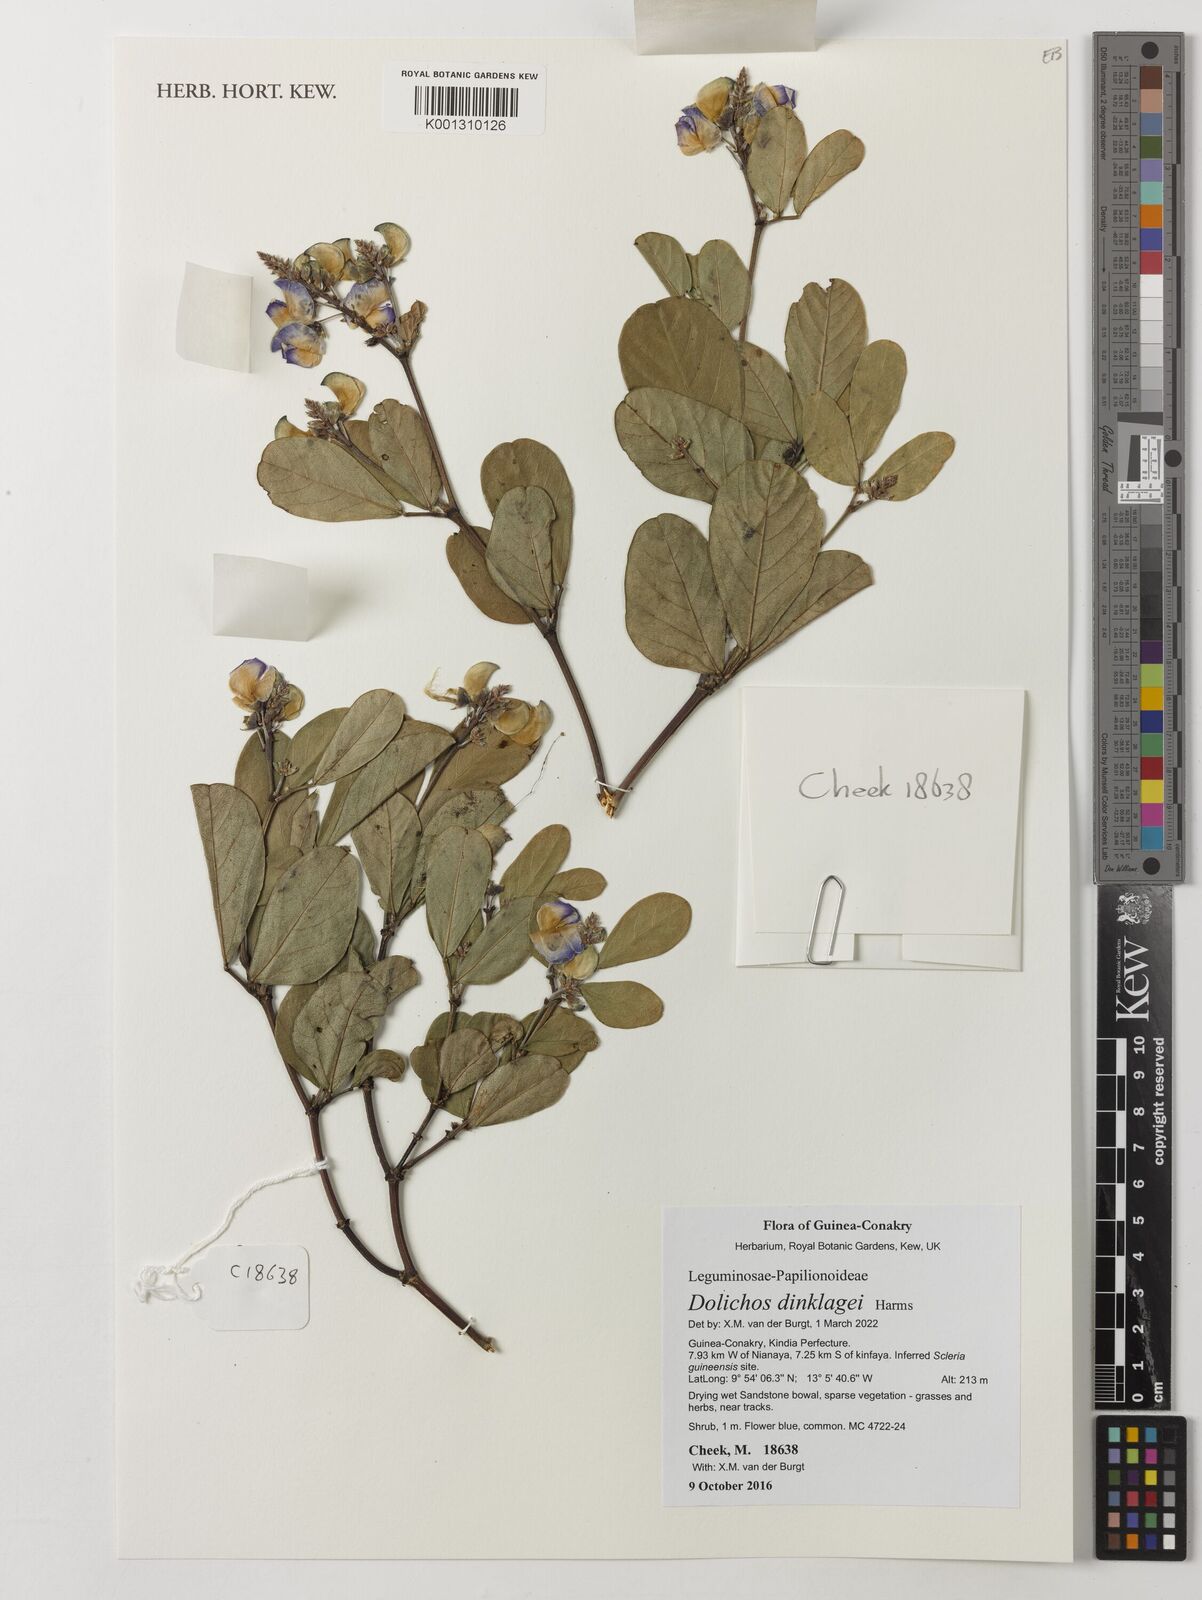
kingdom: Plantae
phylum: Tracheophyta
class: Magnoliopsida
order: Fabales
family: Fabaceae
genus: Dolichos
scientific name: Dolichos dinklagei
